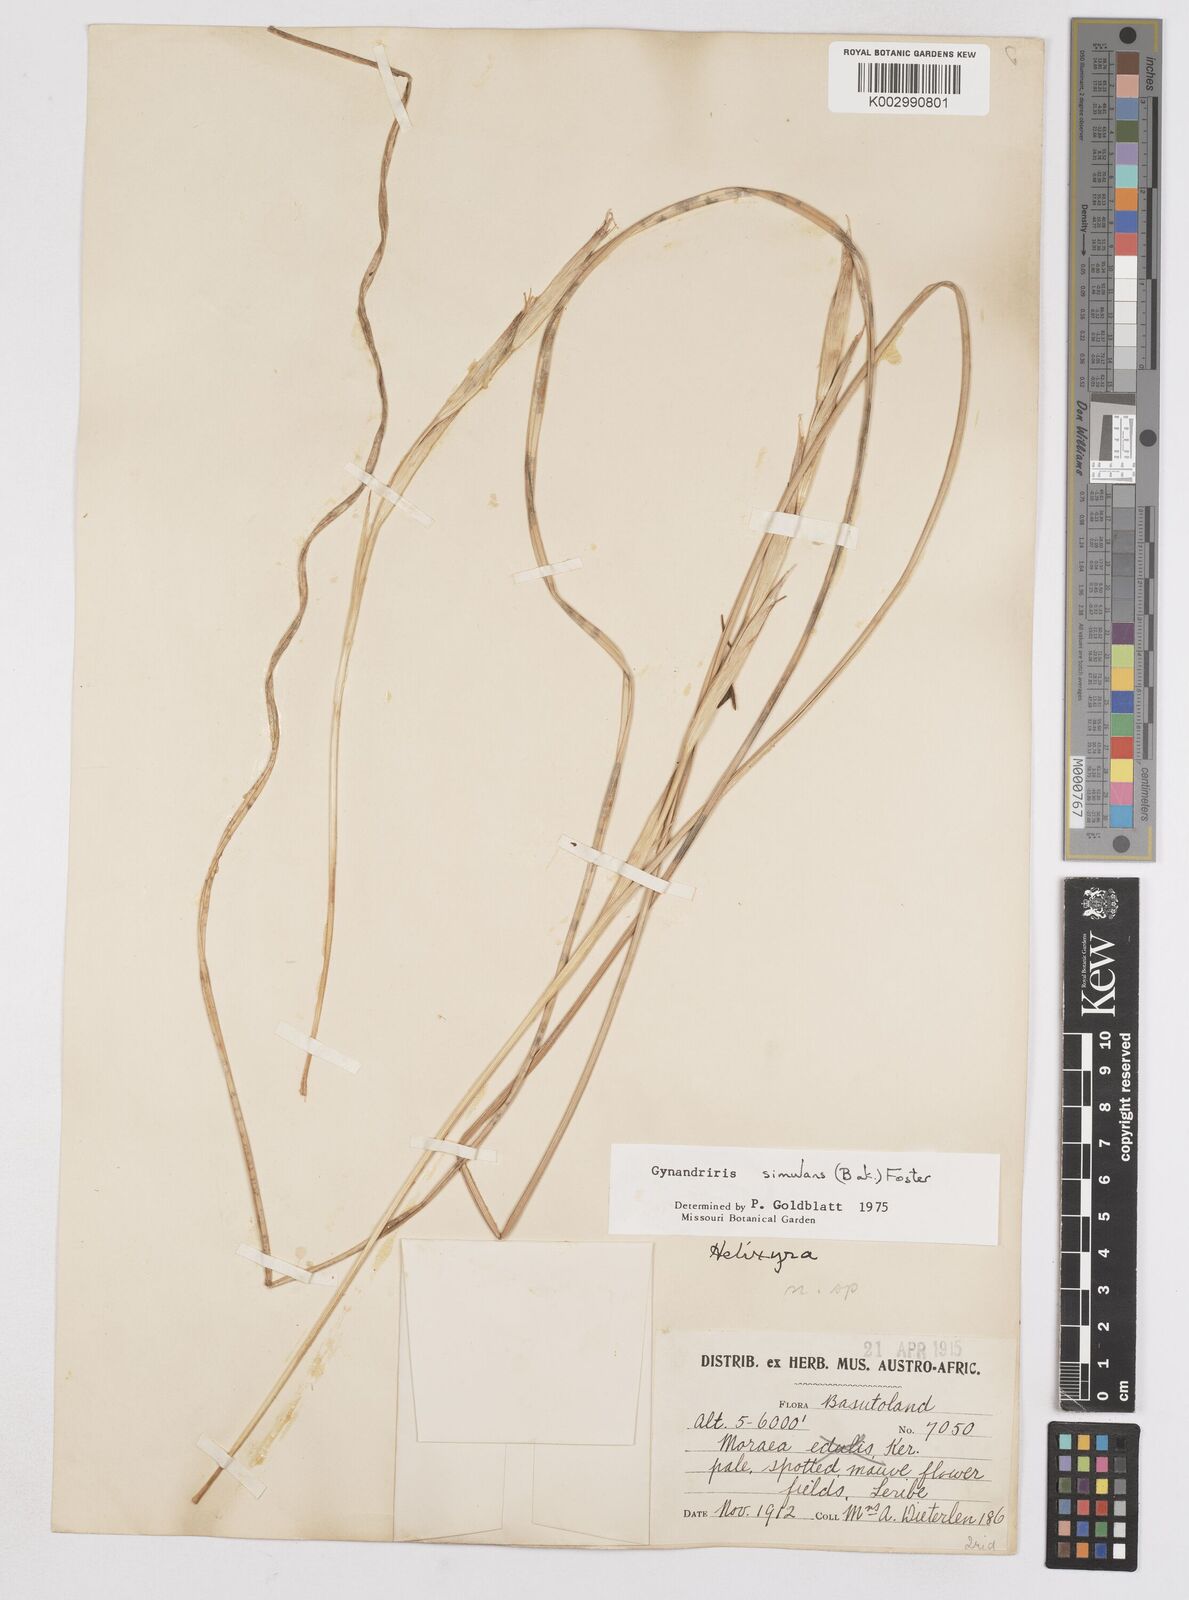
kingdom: Plantae
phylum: Tracheophyta
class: Liliopsida
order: Asparagales
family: Iridaceae
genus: Moraea
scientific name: Moraea simulans
